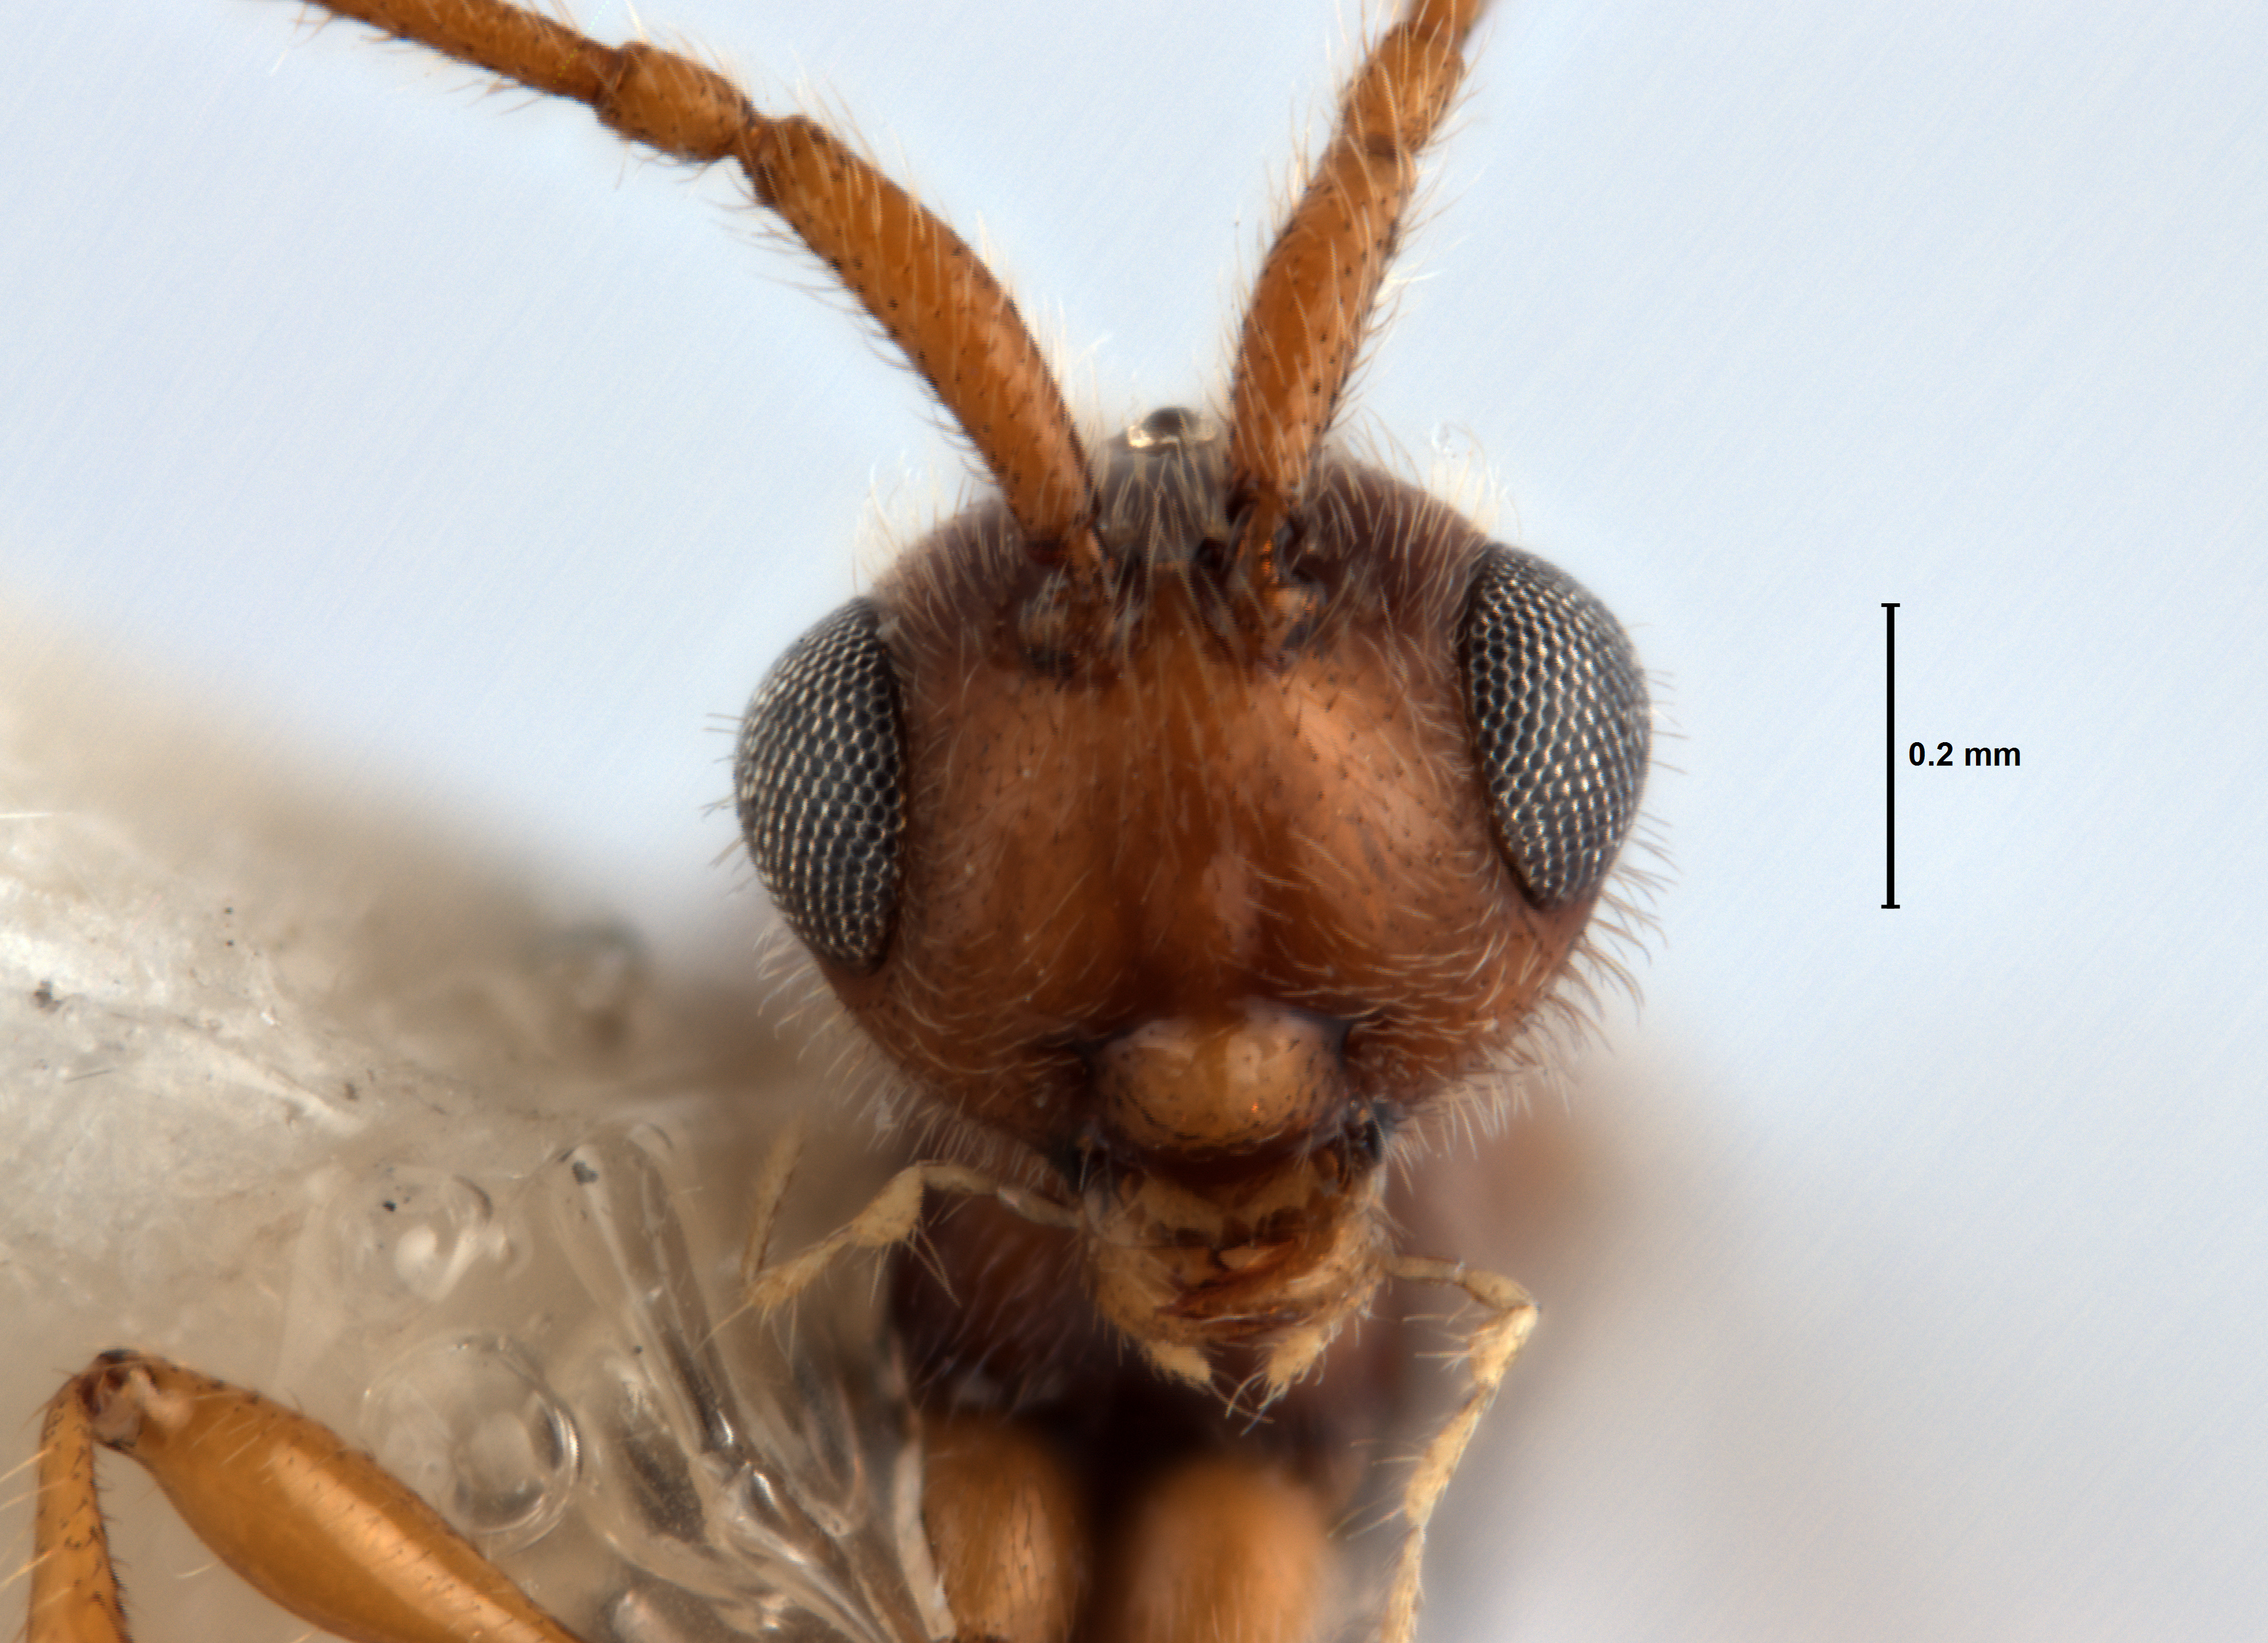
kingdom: Animalia
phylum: Arthropoda
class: Insecta
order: Hymenoptera
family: Diapriidae
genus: Gladicauda
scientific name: Gladicauda
